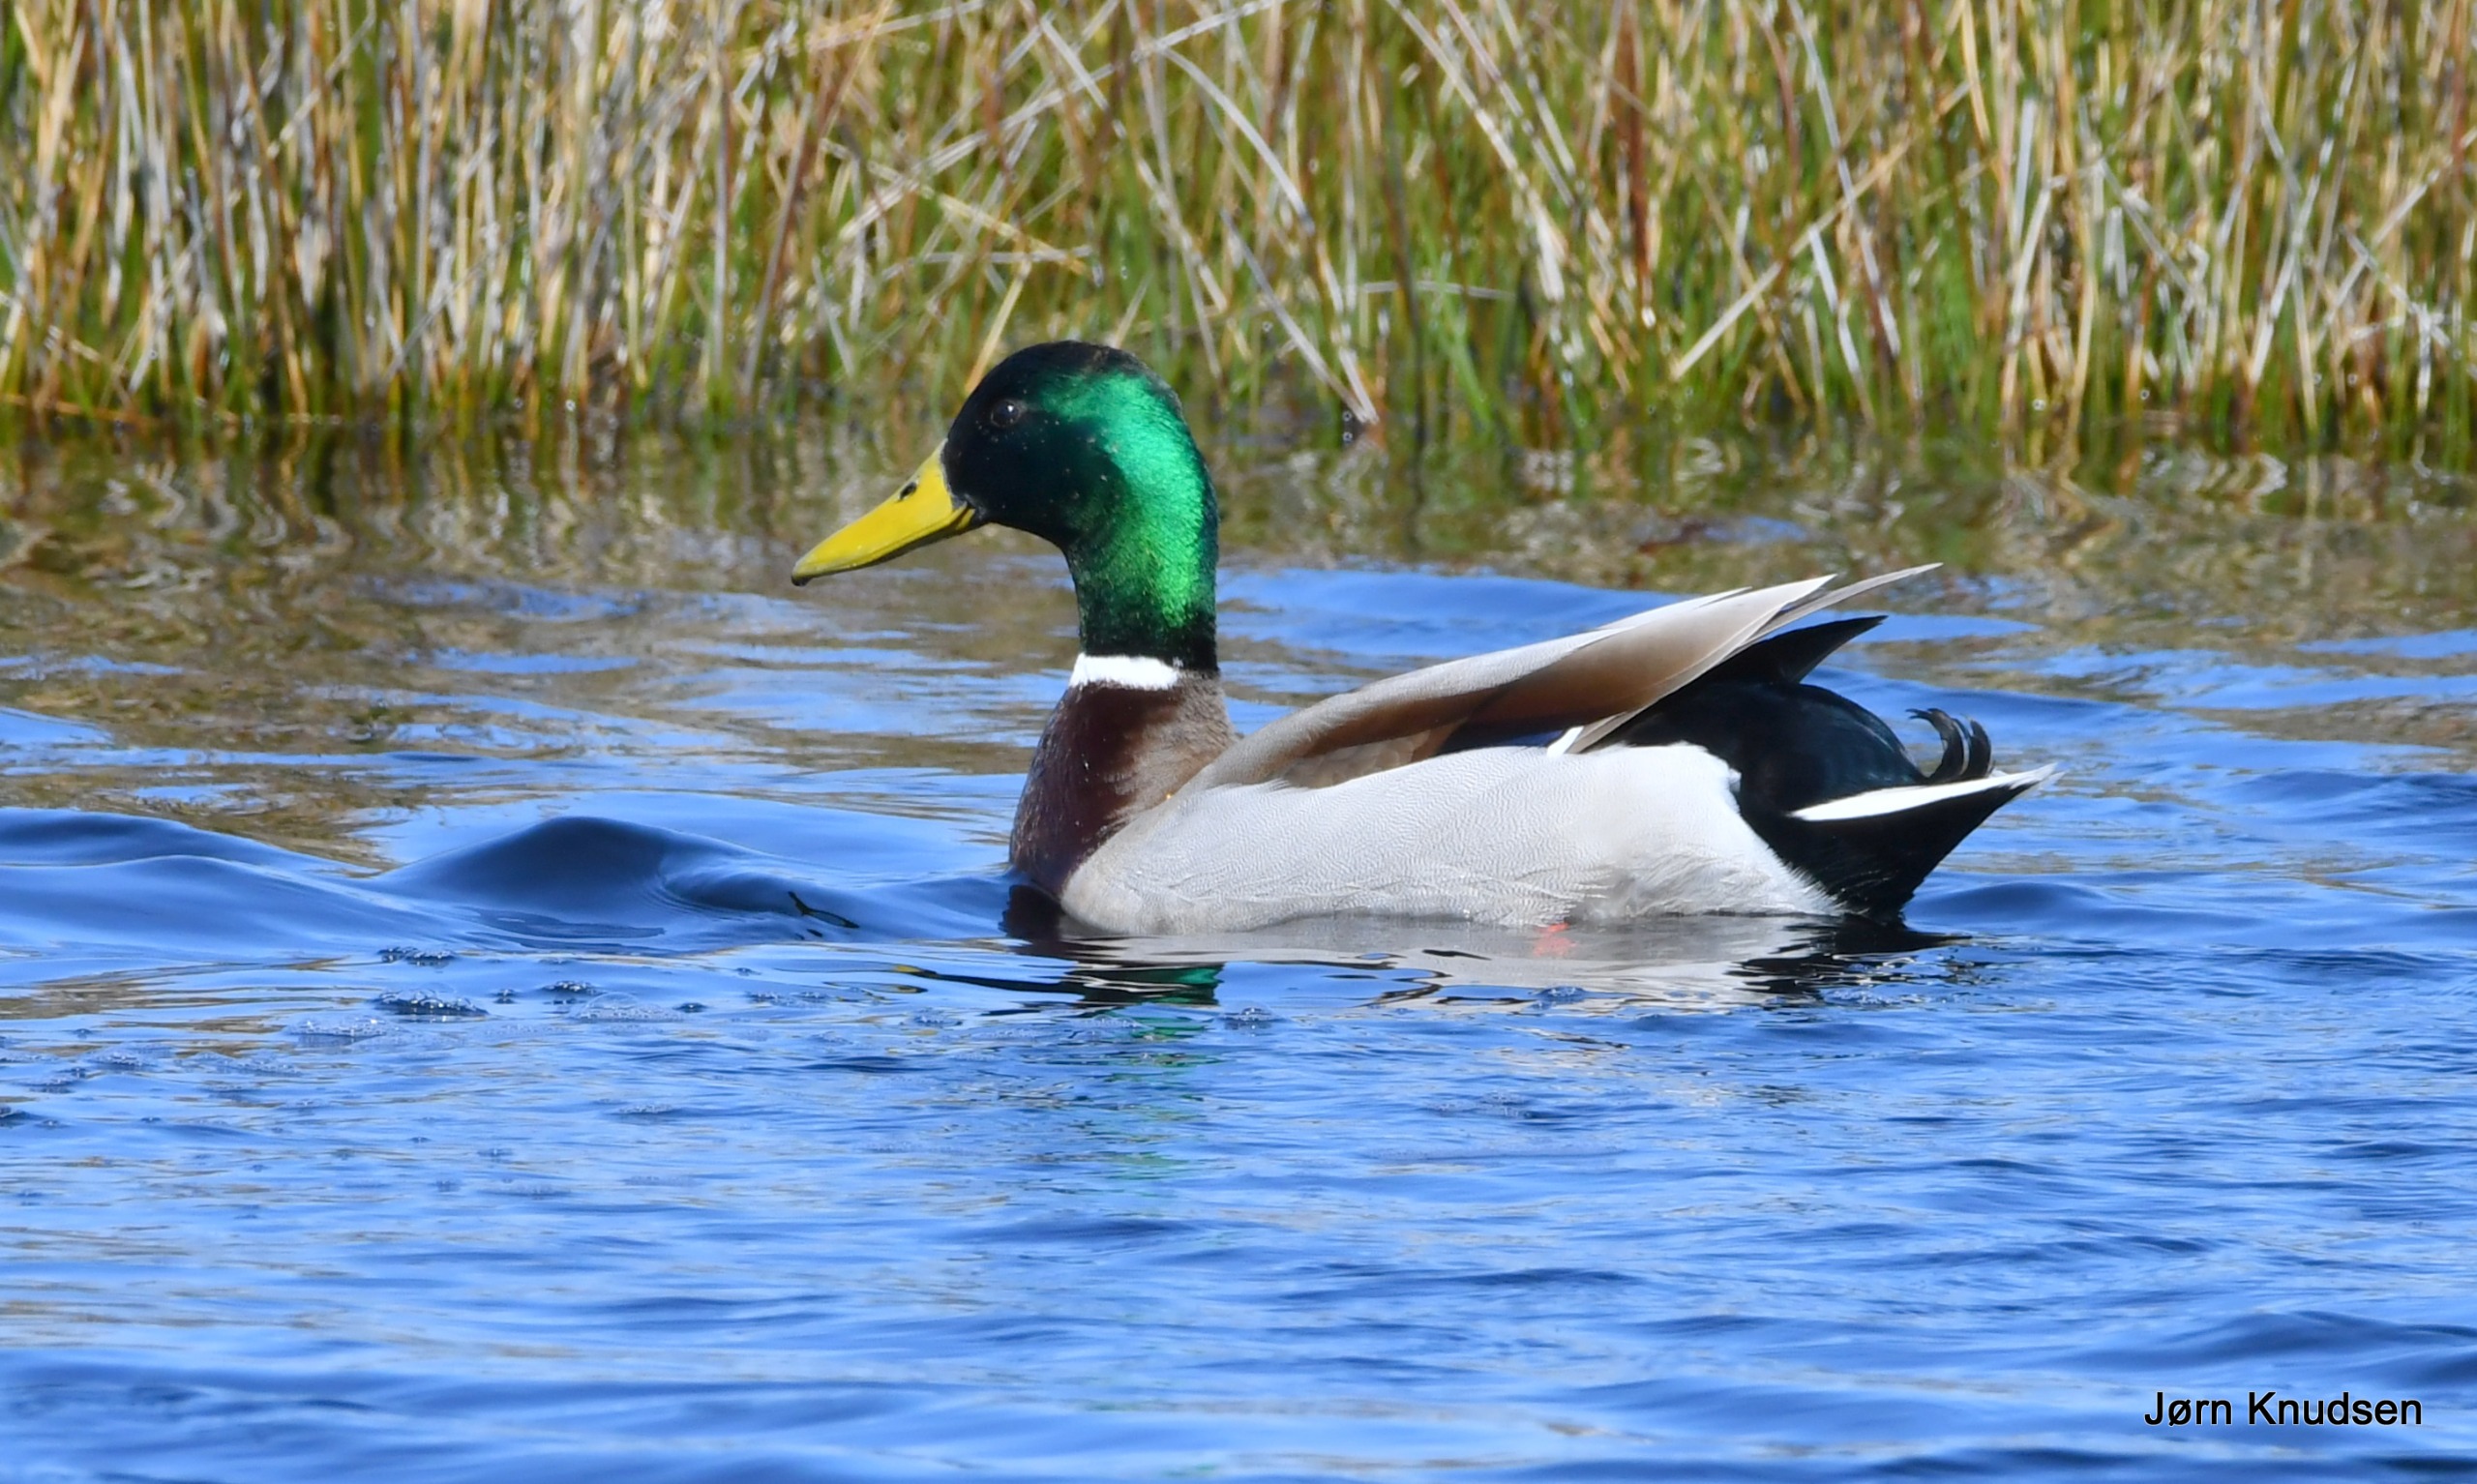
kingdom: Animalia
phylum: Chordata
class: Aves
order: Anseriformes
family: Anatidae
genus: Anas
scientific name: Anas platyrhynchos
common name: Gråand
